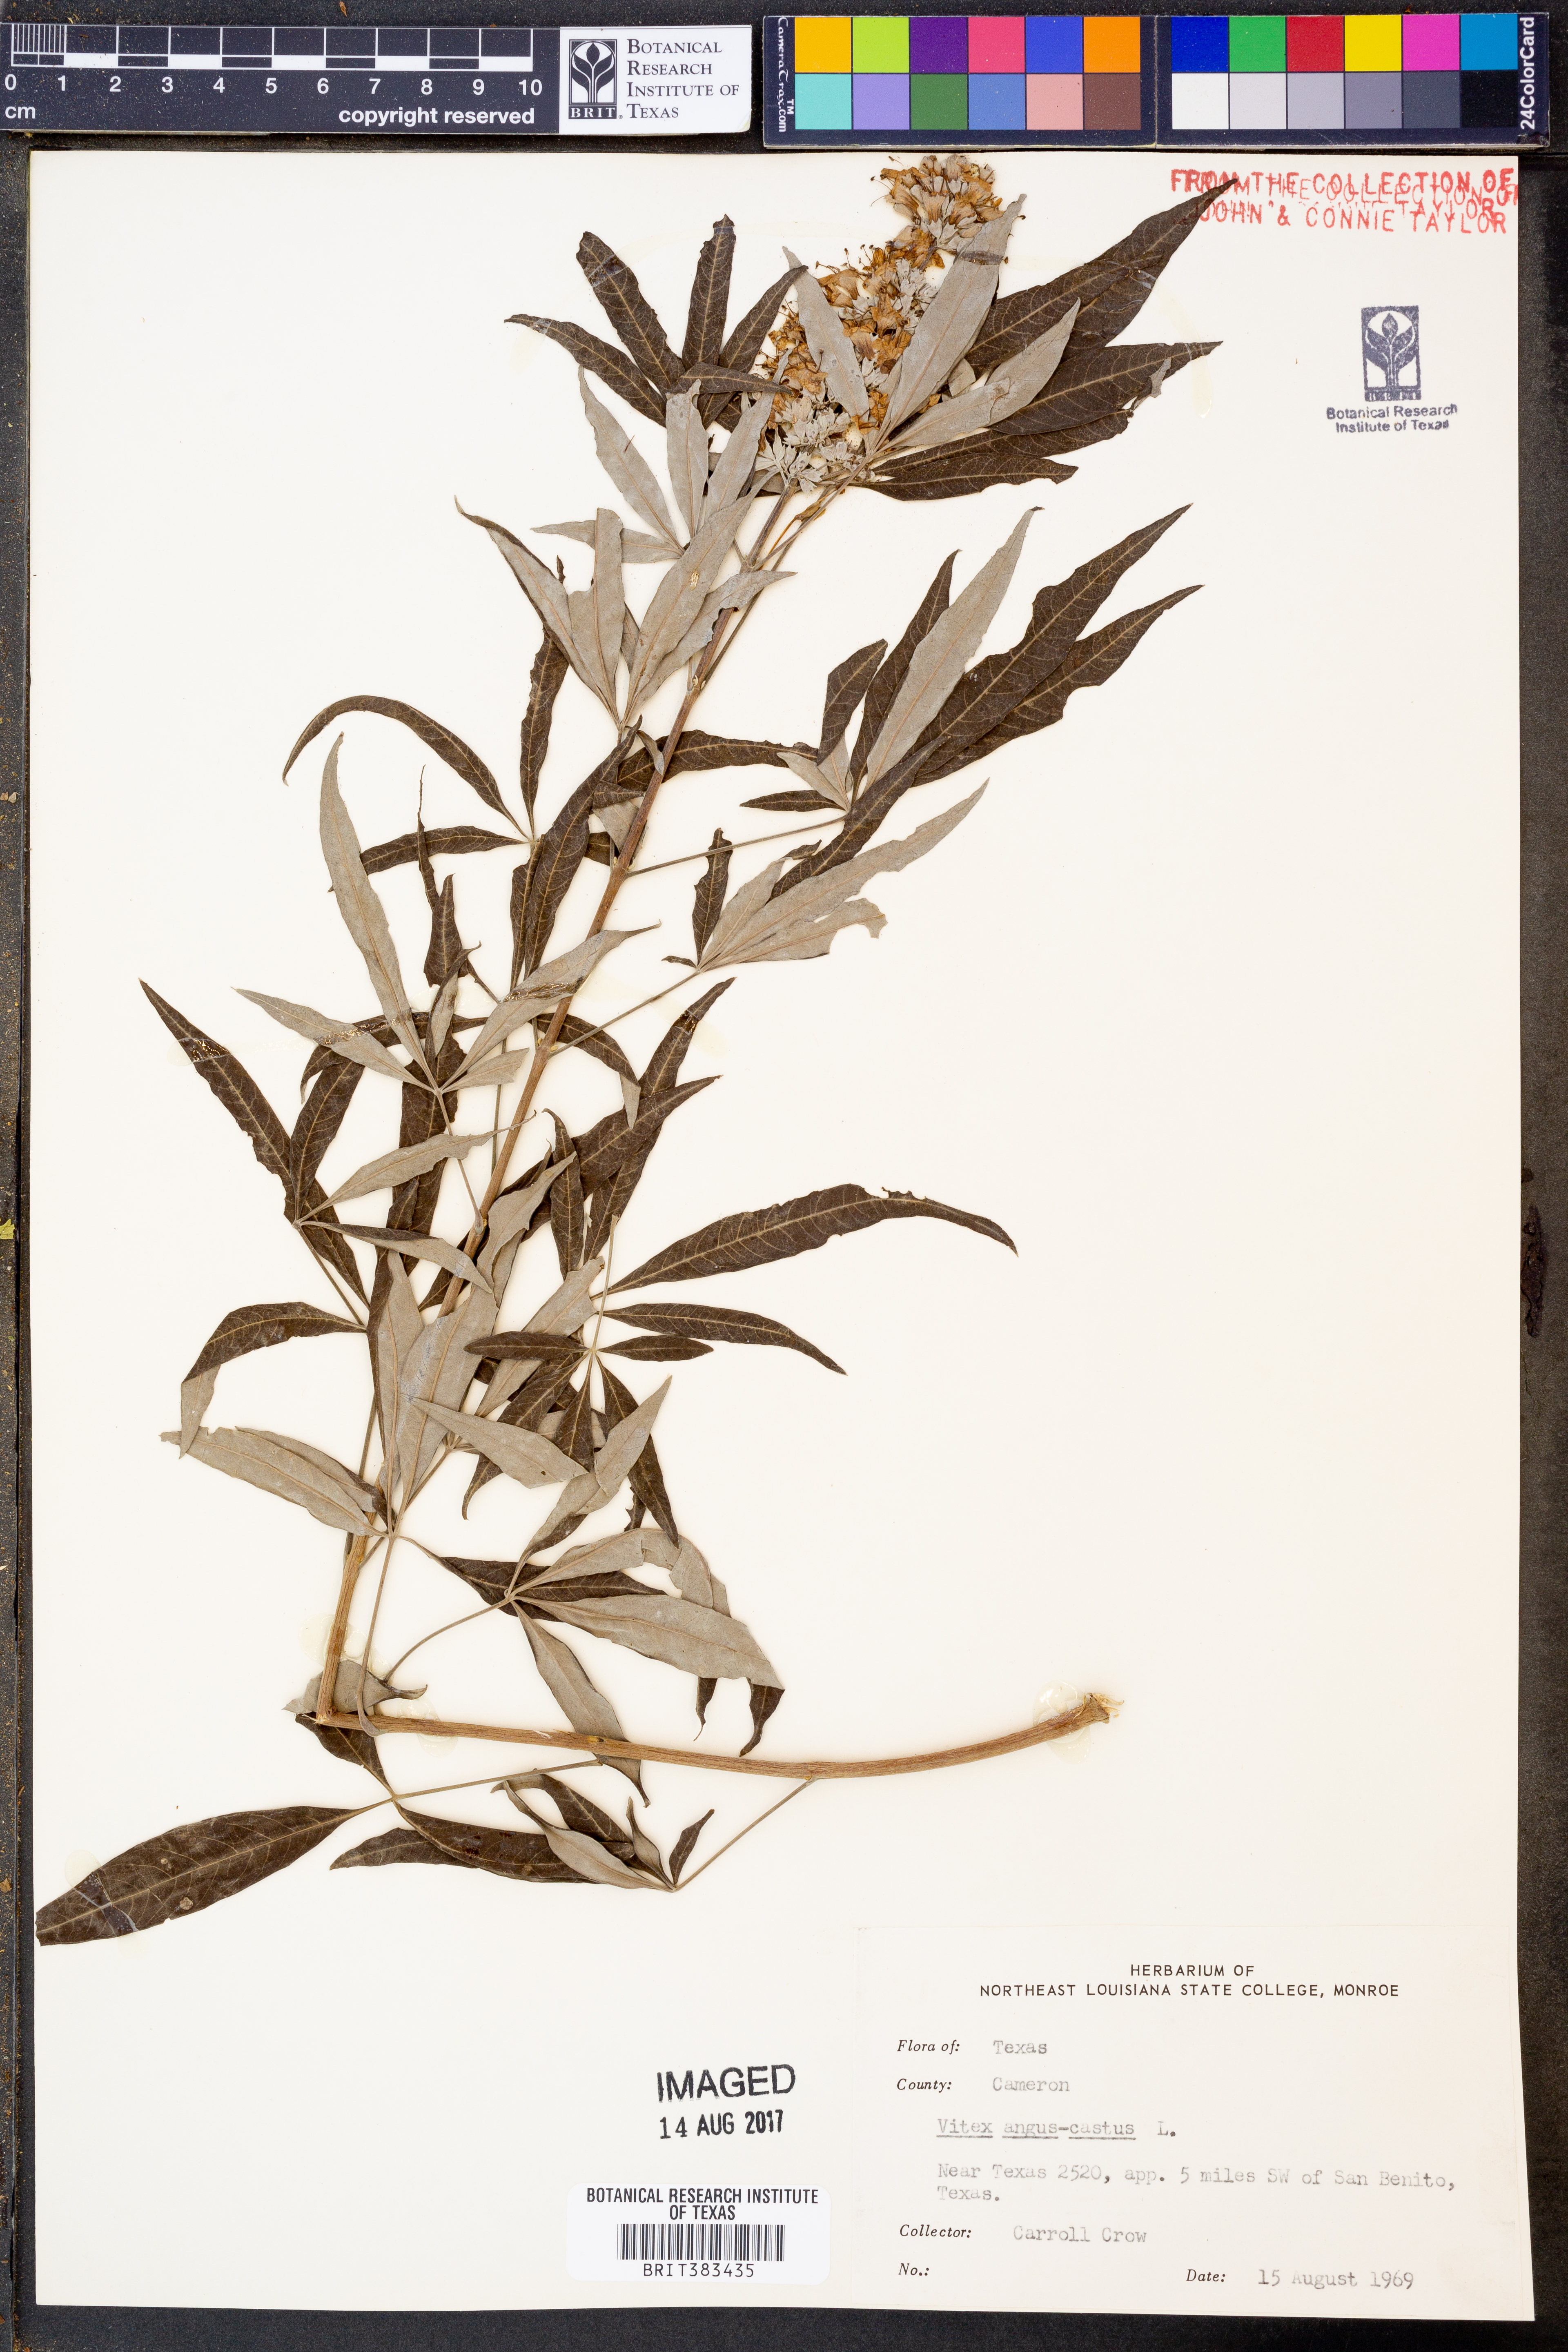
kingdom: Plantae
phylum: Tracheophyta
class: Magnoliopsida
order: Lamiales
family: Lamiaceae
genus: Vitex
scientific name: Vitex agnus-castus
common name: Chasteberry
